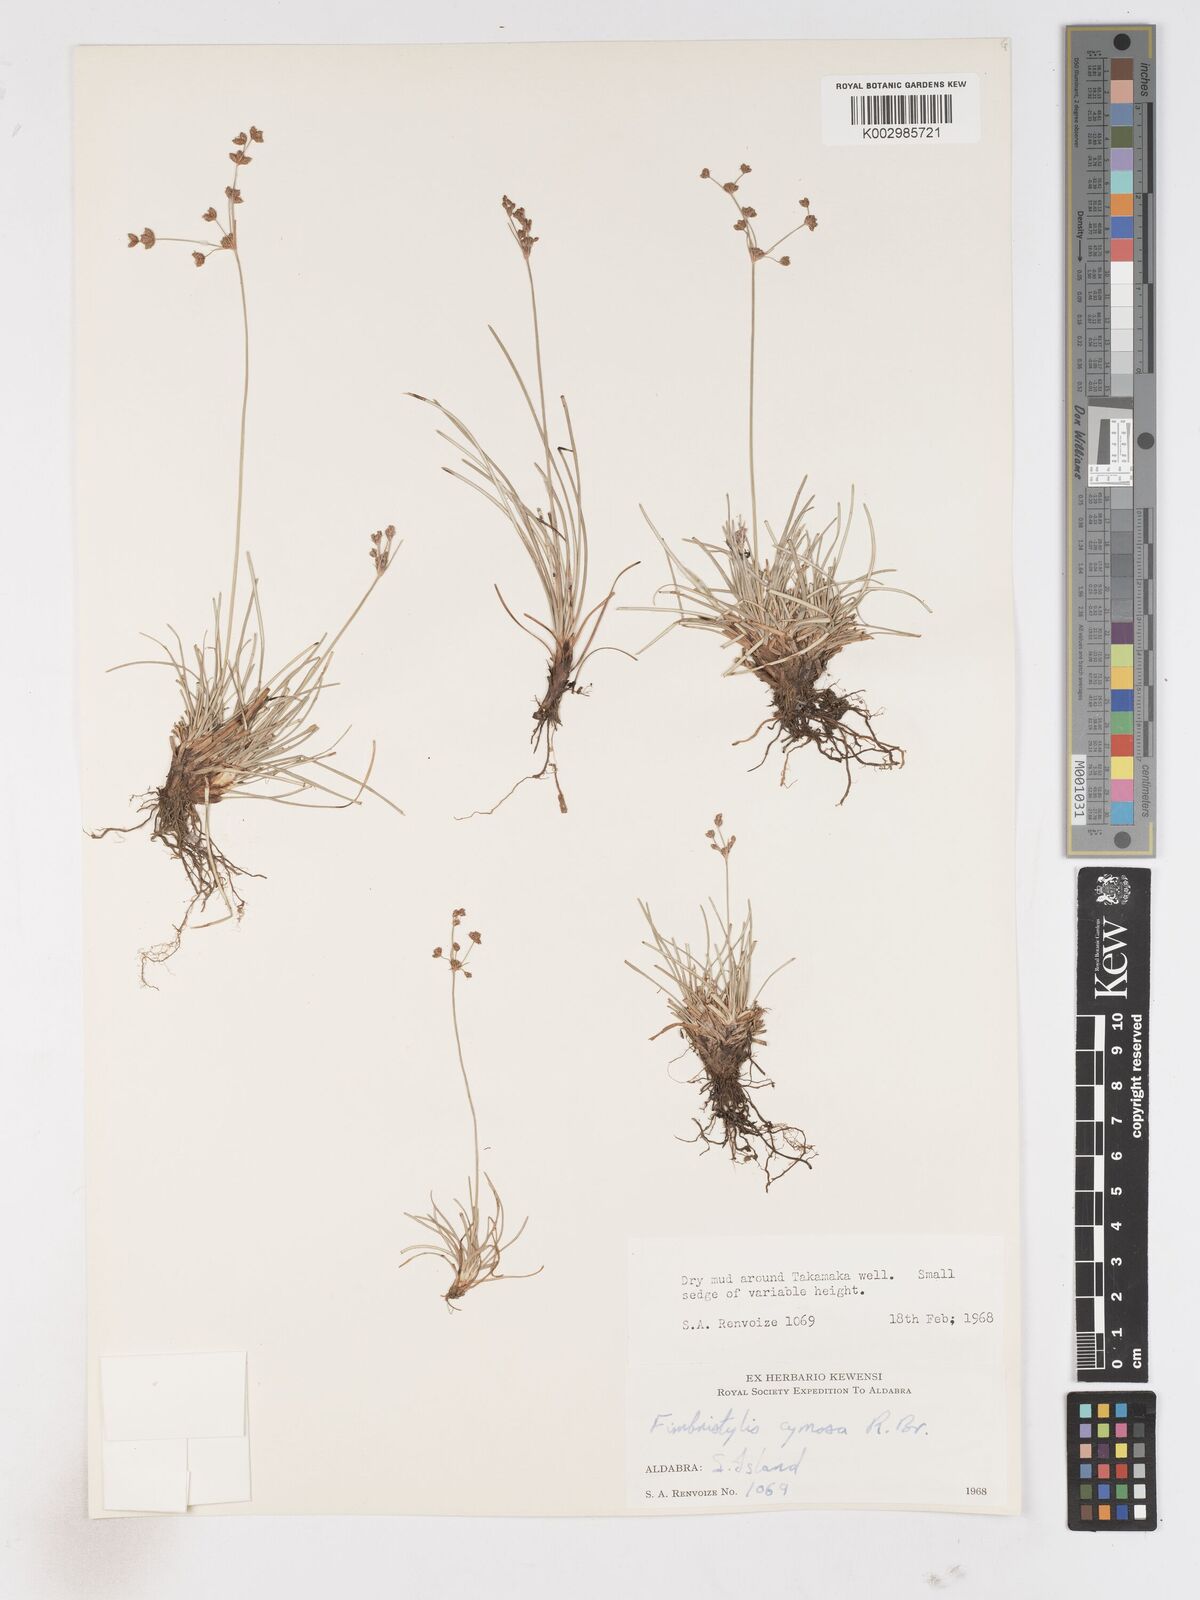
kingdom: Plantae
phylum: Tracheophyta
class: Liliopsida
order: Poales
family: Cyperaceae
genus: Fimbristylis
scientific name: Fimbristylis cymosa
